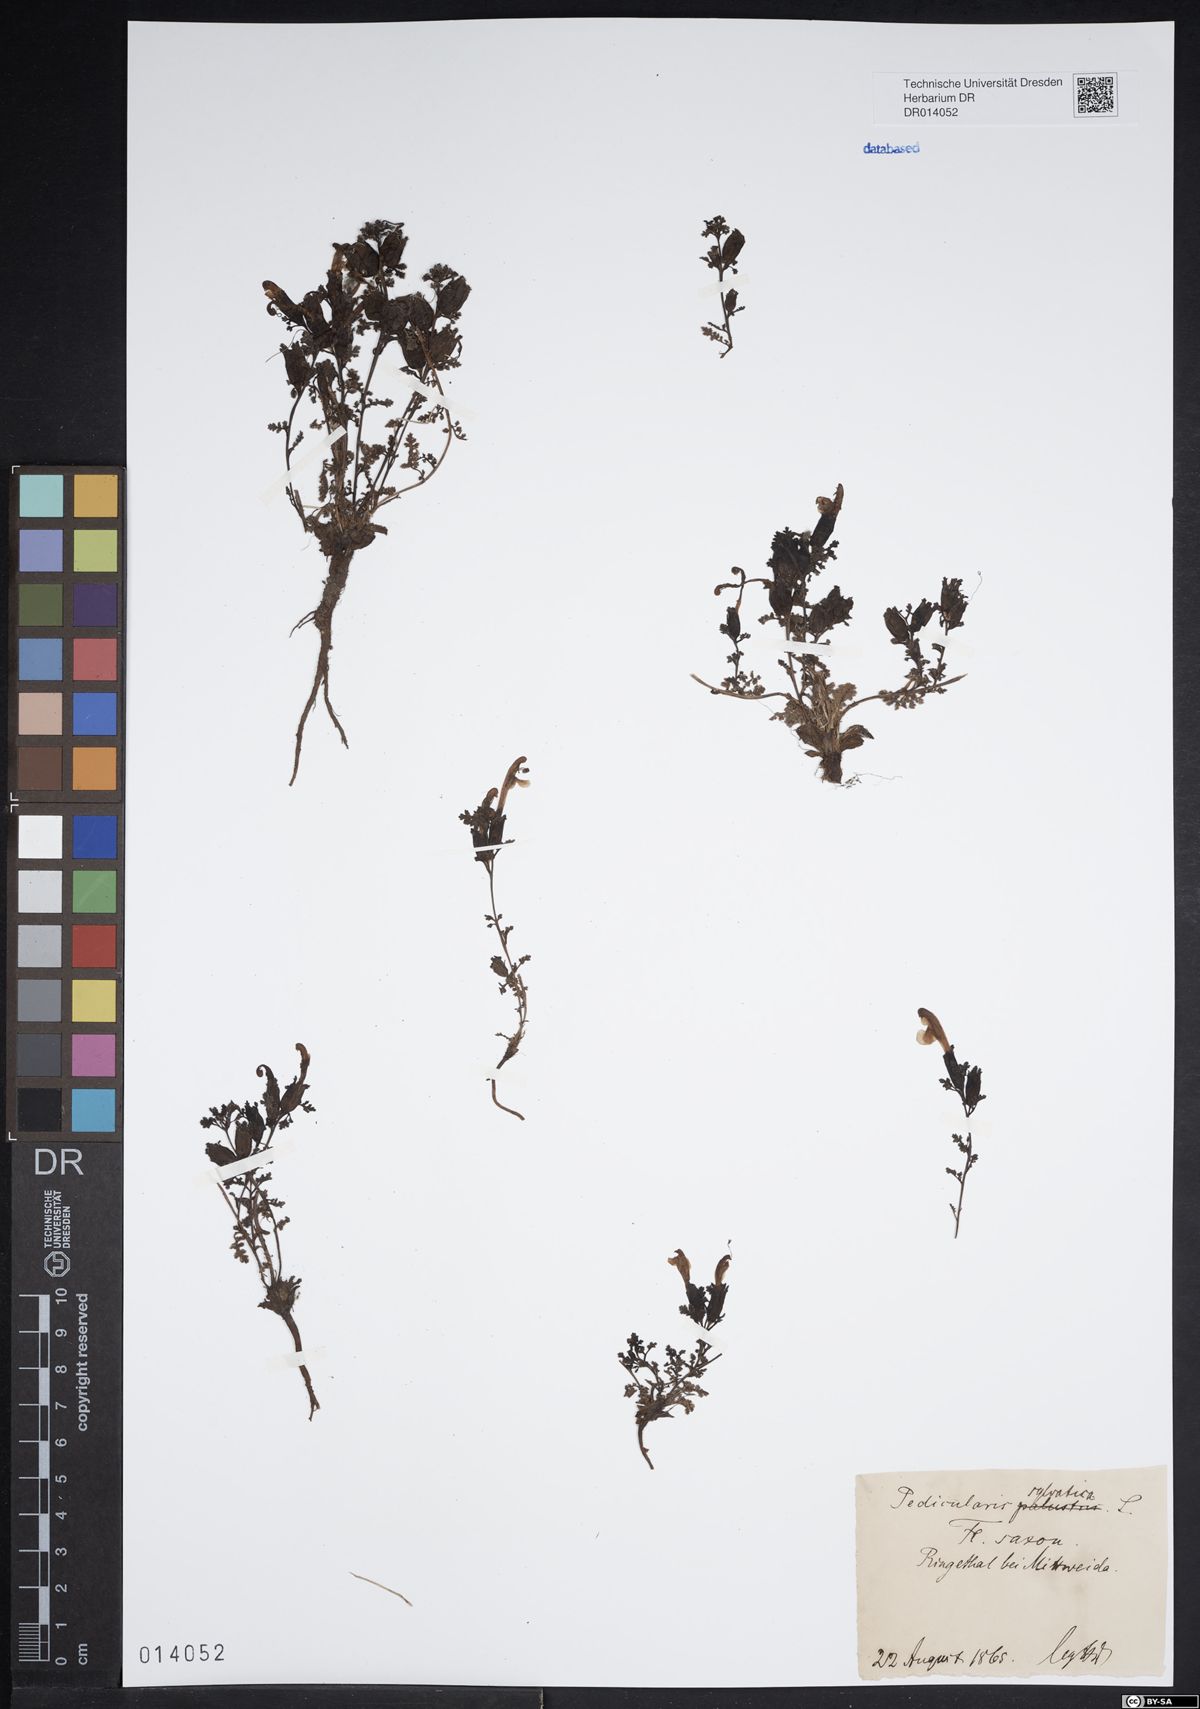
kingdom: Plantae
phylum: Tracheophyta
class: Magnoliopsida
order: Lamiales
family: Orobanchaceae
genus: Pedicularis
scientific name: Pedicularis sylvatica
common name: Lousewort
